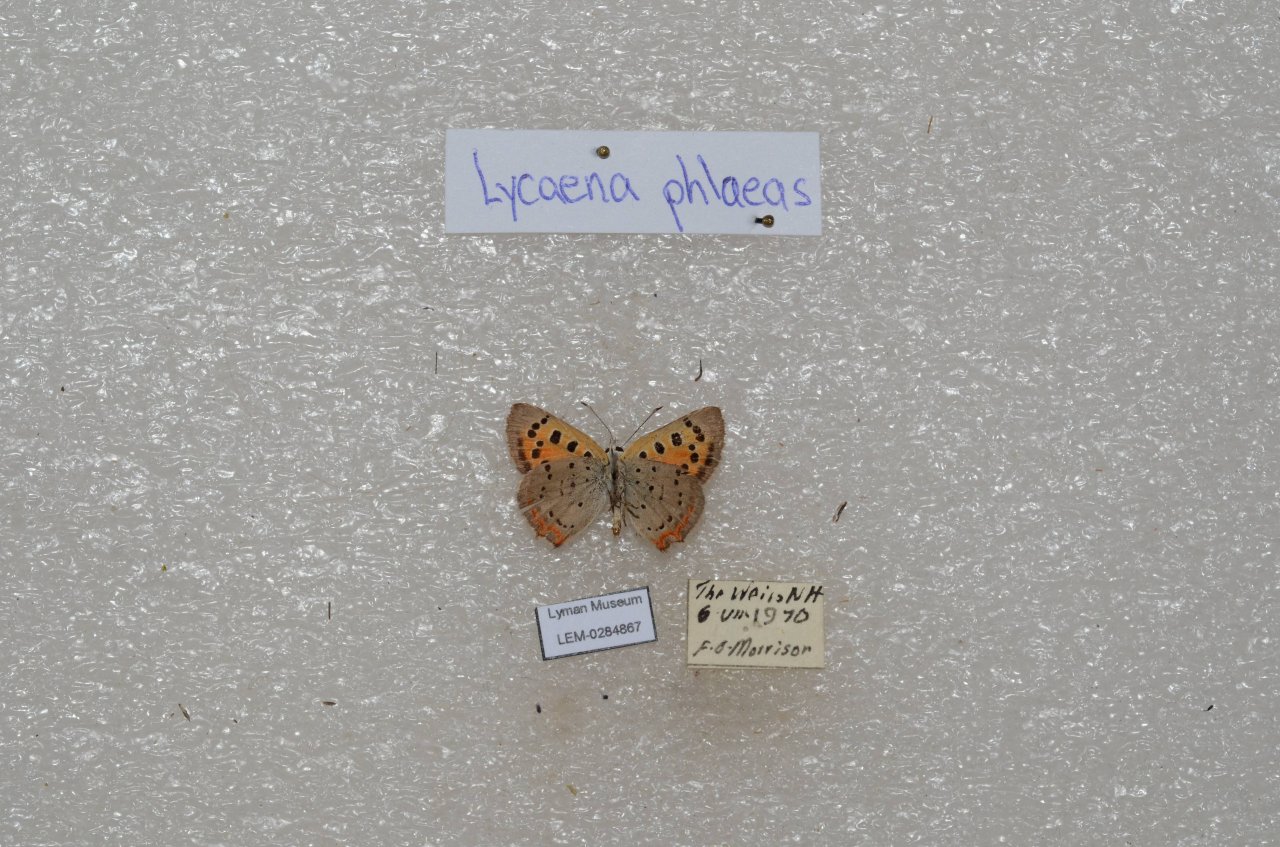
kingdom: Animalia
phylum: Arthropoda
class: Insecta
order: Lepidoptera
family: Lycaenidae
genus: Lycaena
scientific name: Lycaena phlaeas
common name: American Copper
